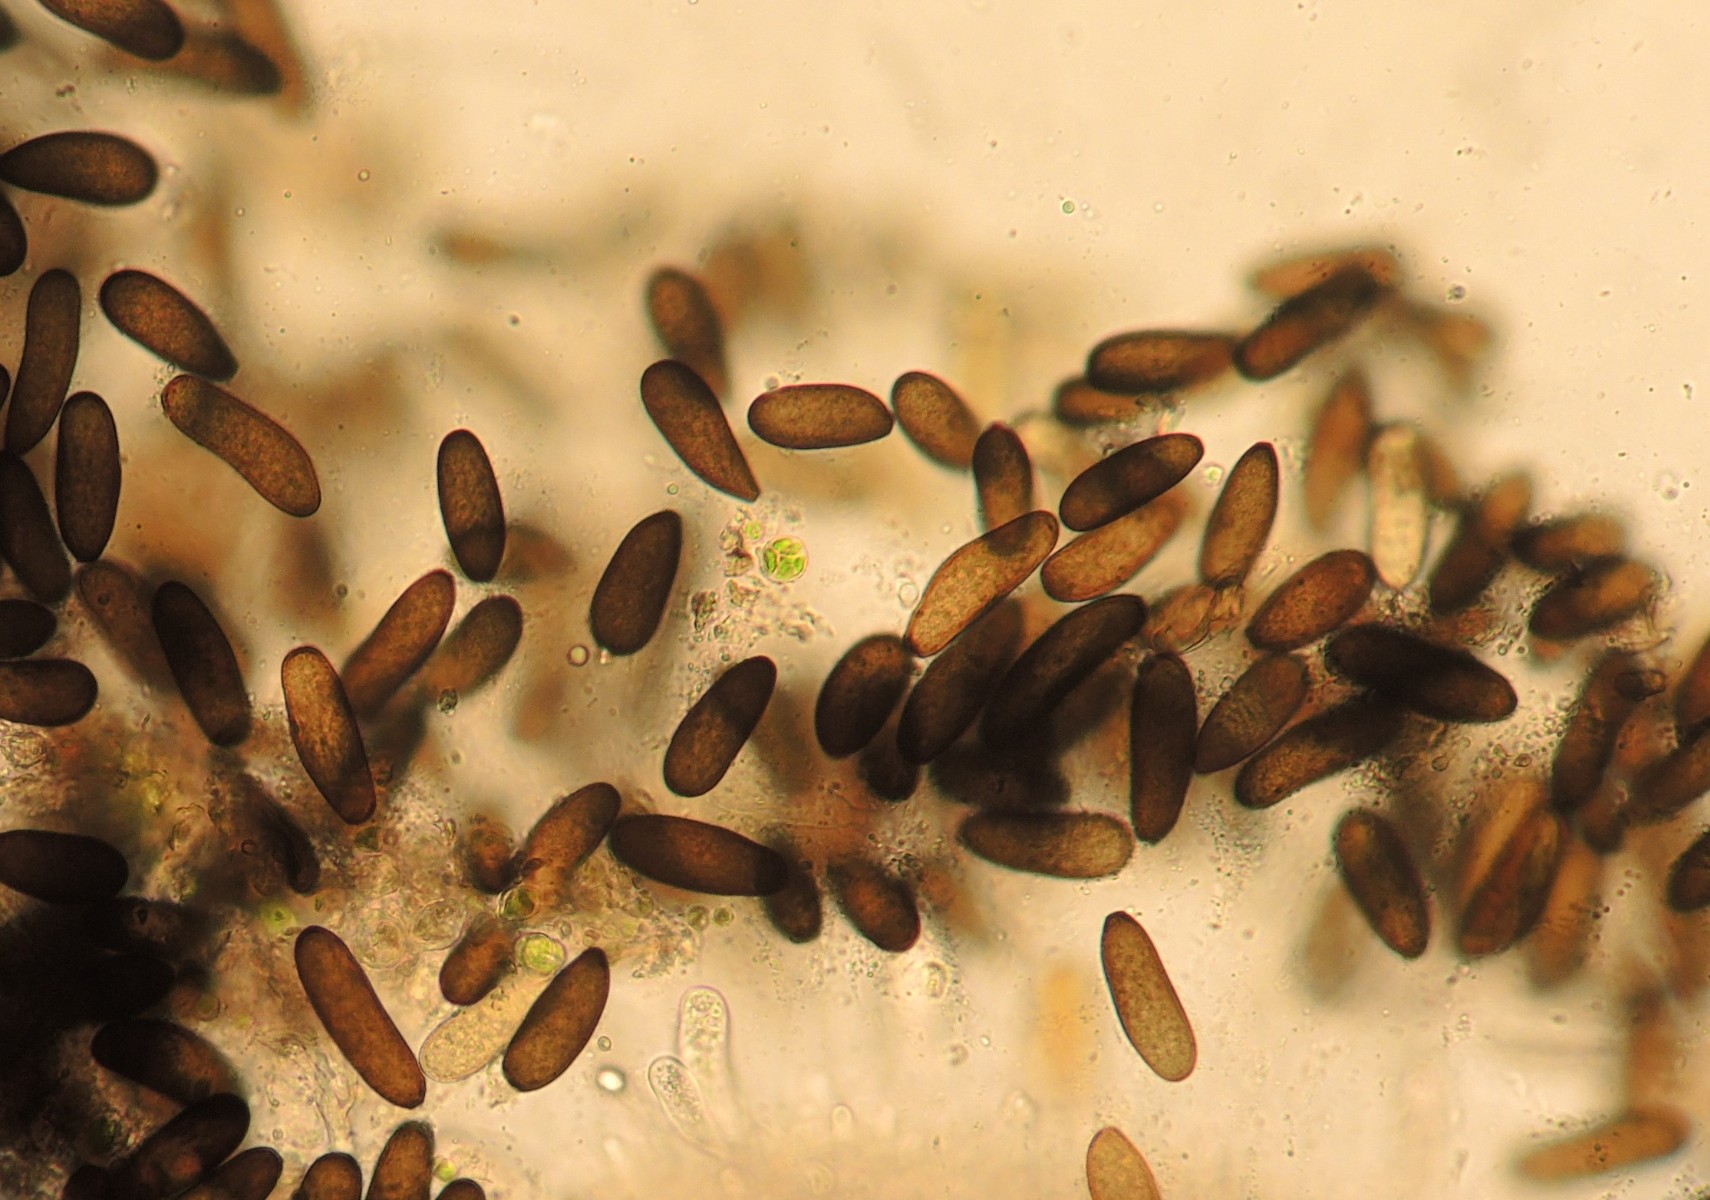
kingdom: Fungi
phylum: Ascomycota
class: Dothideomycetes
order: Botryosphaeriales
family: Botryosphaeriaceae
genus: Sphaeropsis
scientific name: Sphaeropsis sapinea
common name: Sphaeropsis blight
